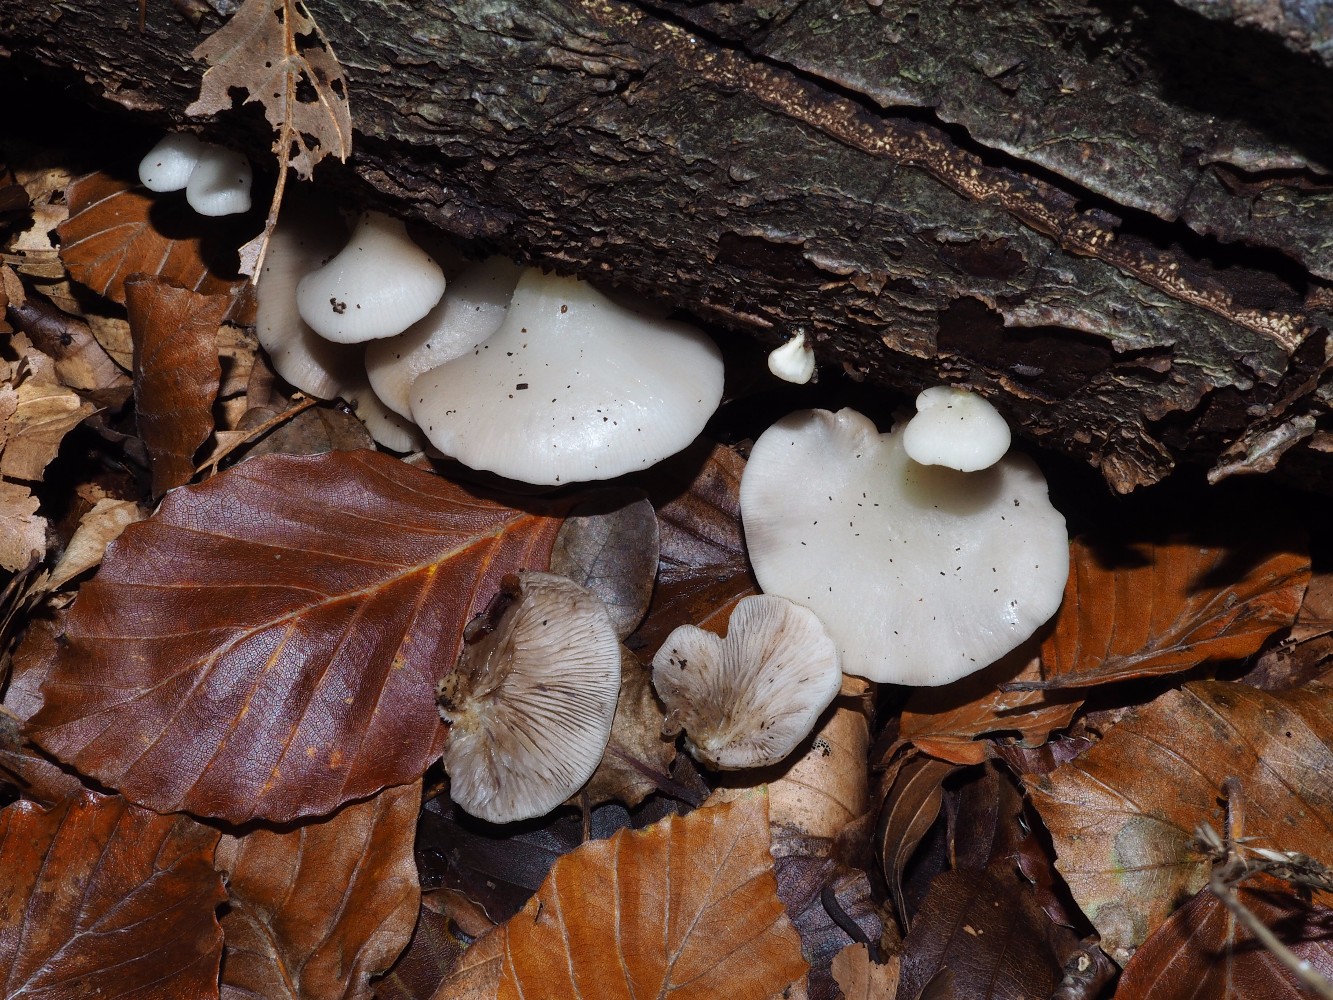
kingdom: Fungi
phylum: Basidiomycota
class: Agaricomycetes
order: Agaricales
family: Crepidotaceae
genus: Crepidotus
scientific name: Crepidotus mollis
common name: blød muslingesvamp
